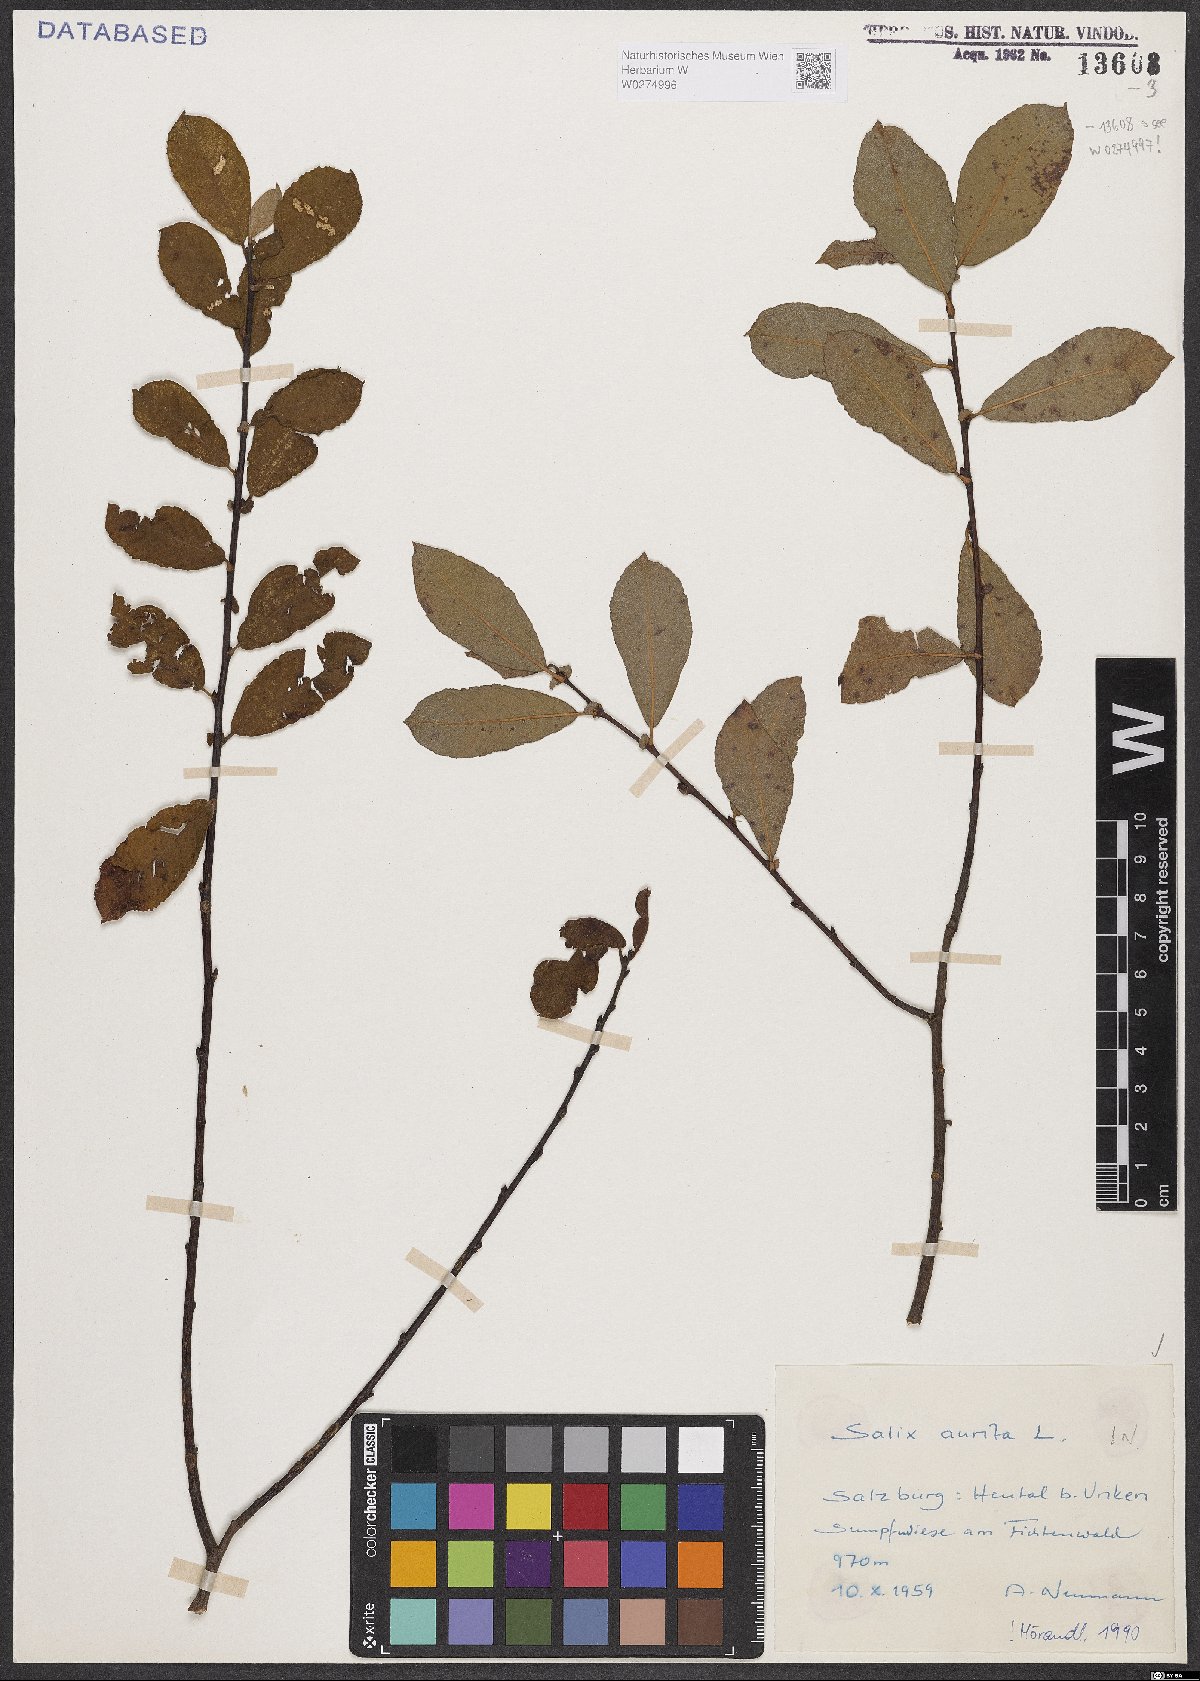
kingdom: Plantae
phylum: Tracheophyta
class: Magnoliopsida
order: Malpighiales
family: Salicaceae
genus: Salix
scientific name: Salix aurita
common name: Eared willow
